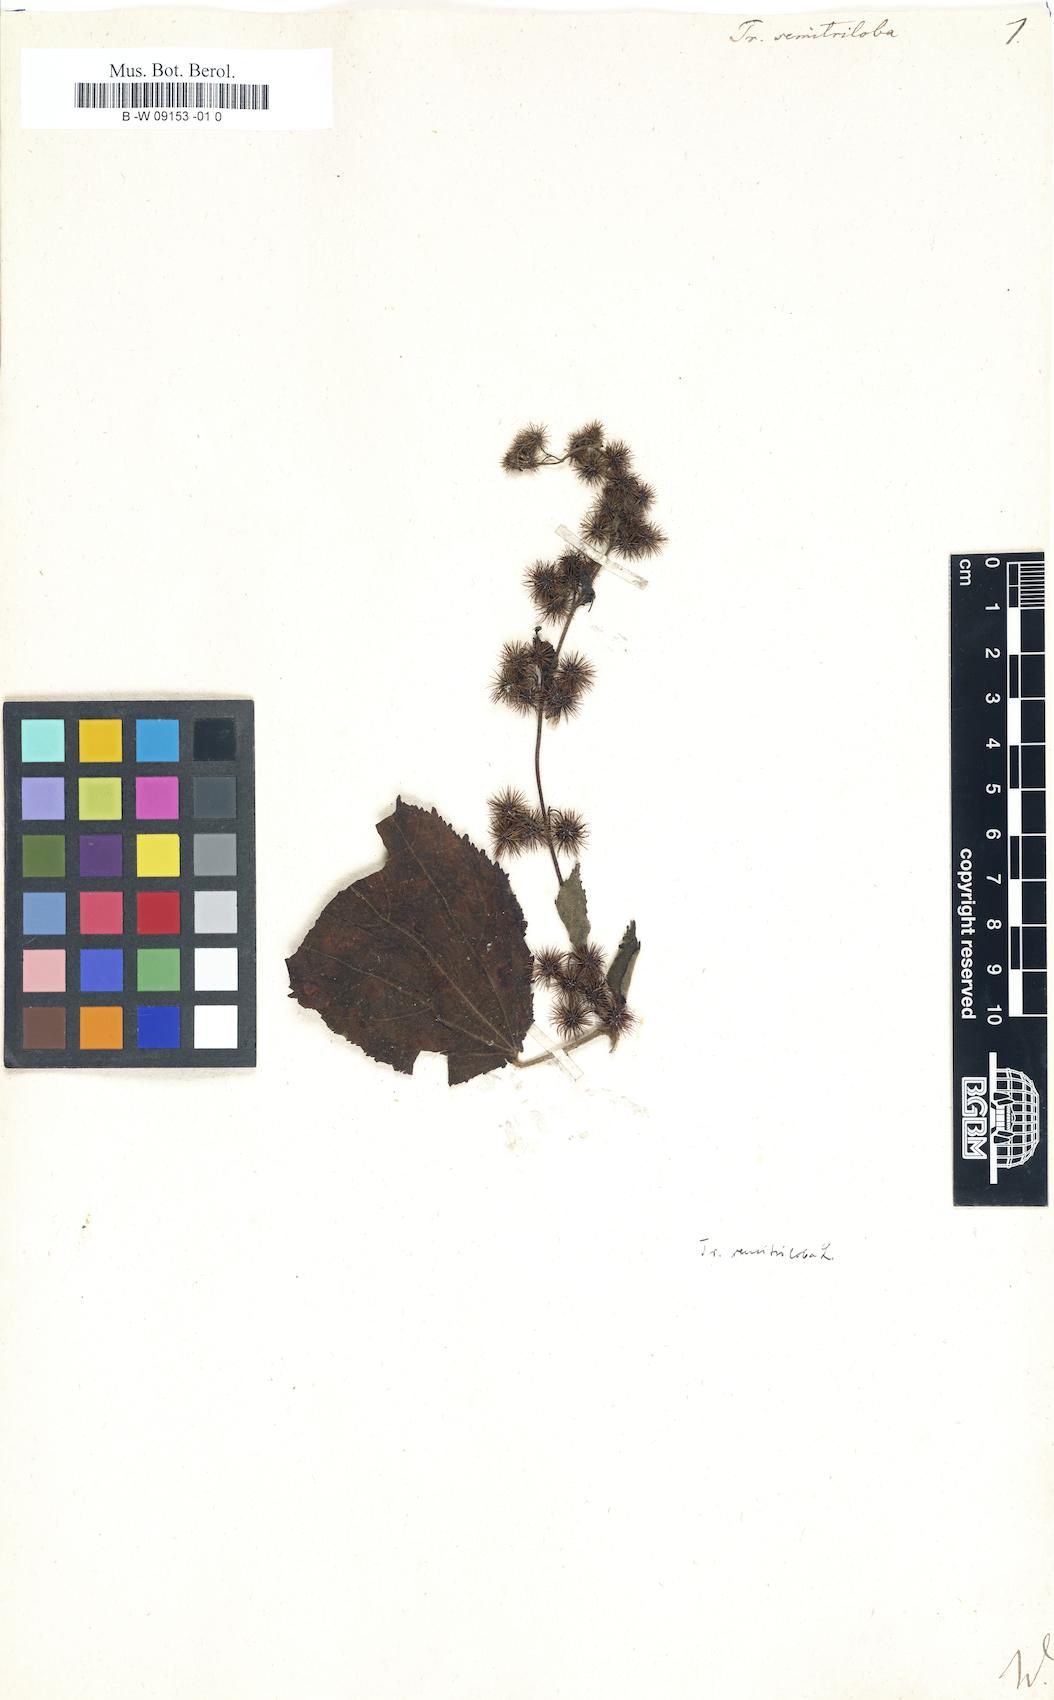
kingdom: Plantae
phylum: Tracheophyta
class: Magnoliopsida
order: Malvales
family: Malvaceae
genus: Triumfetta
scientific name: Triumfetta semitriloba
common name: Sacramento burbark
